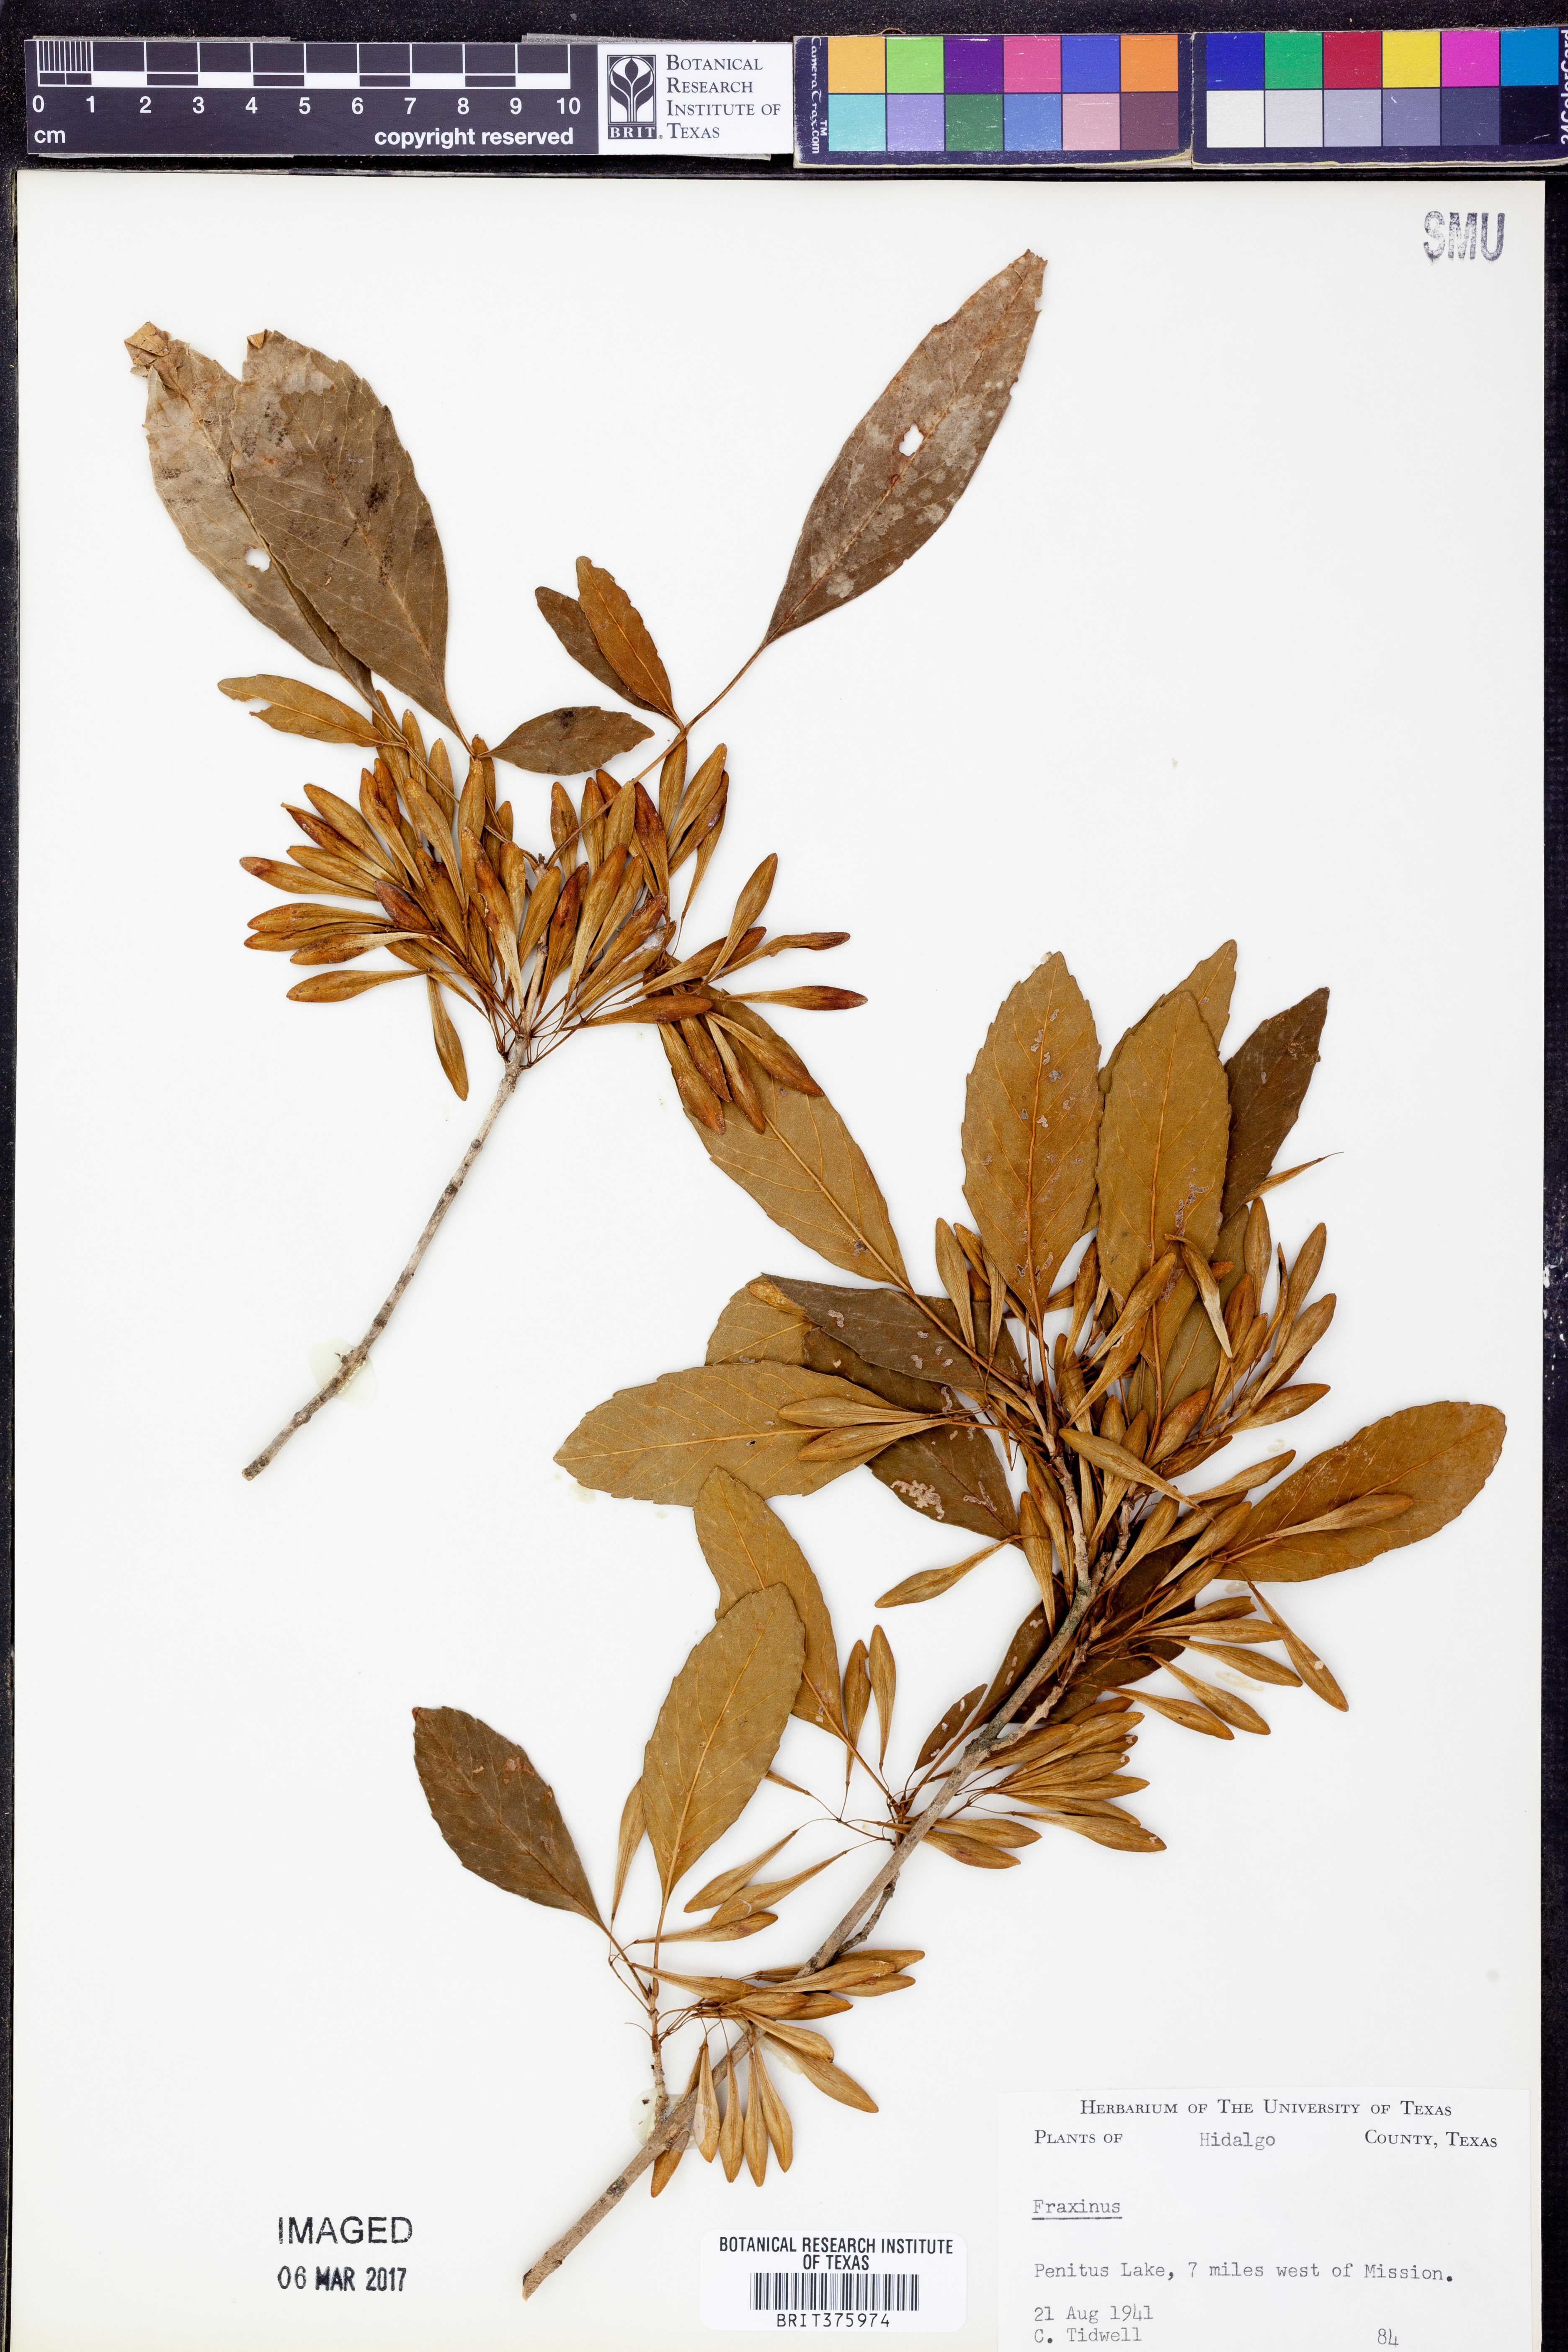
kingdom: Plantae
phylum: Tracheophyta
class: Magnoliopsida
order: Lamiales
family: Oleaceae
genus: Fraxinus
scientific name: Fraxinus
